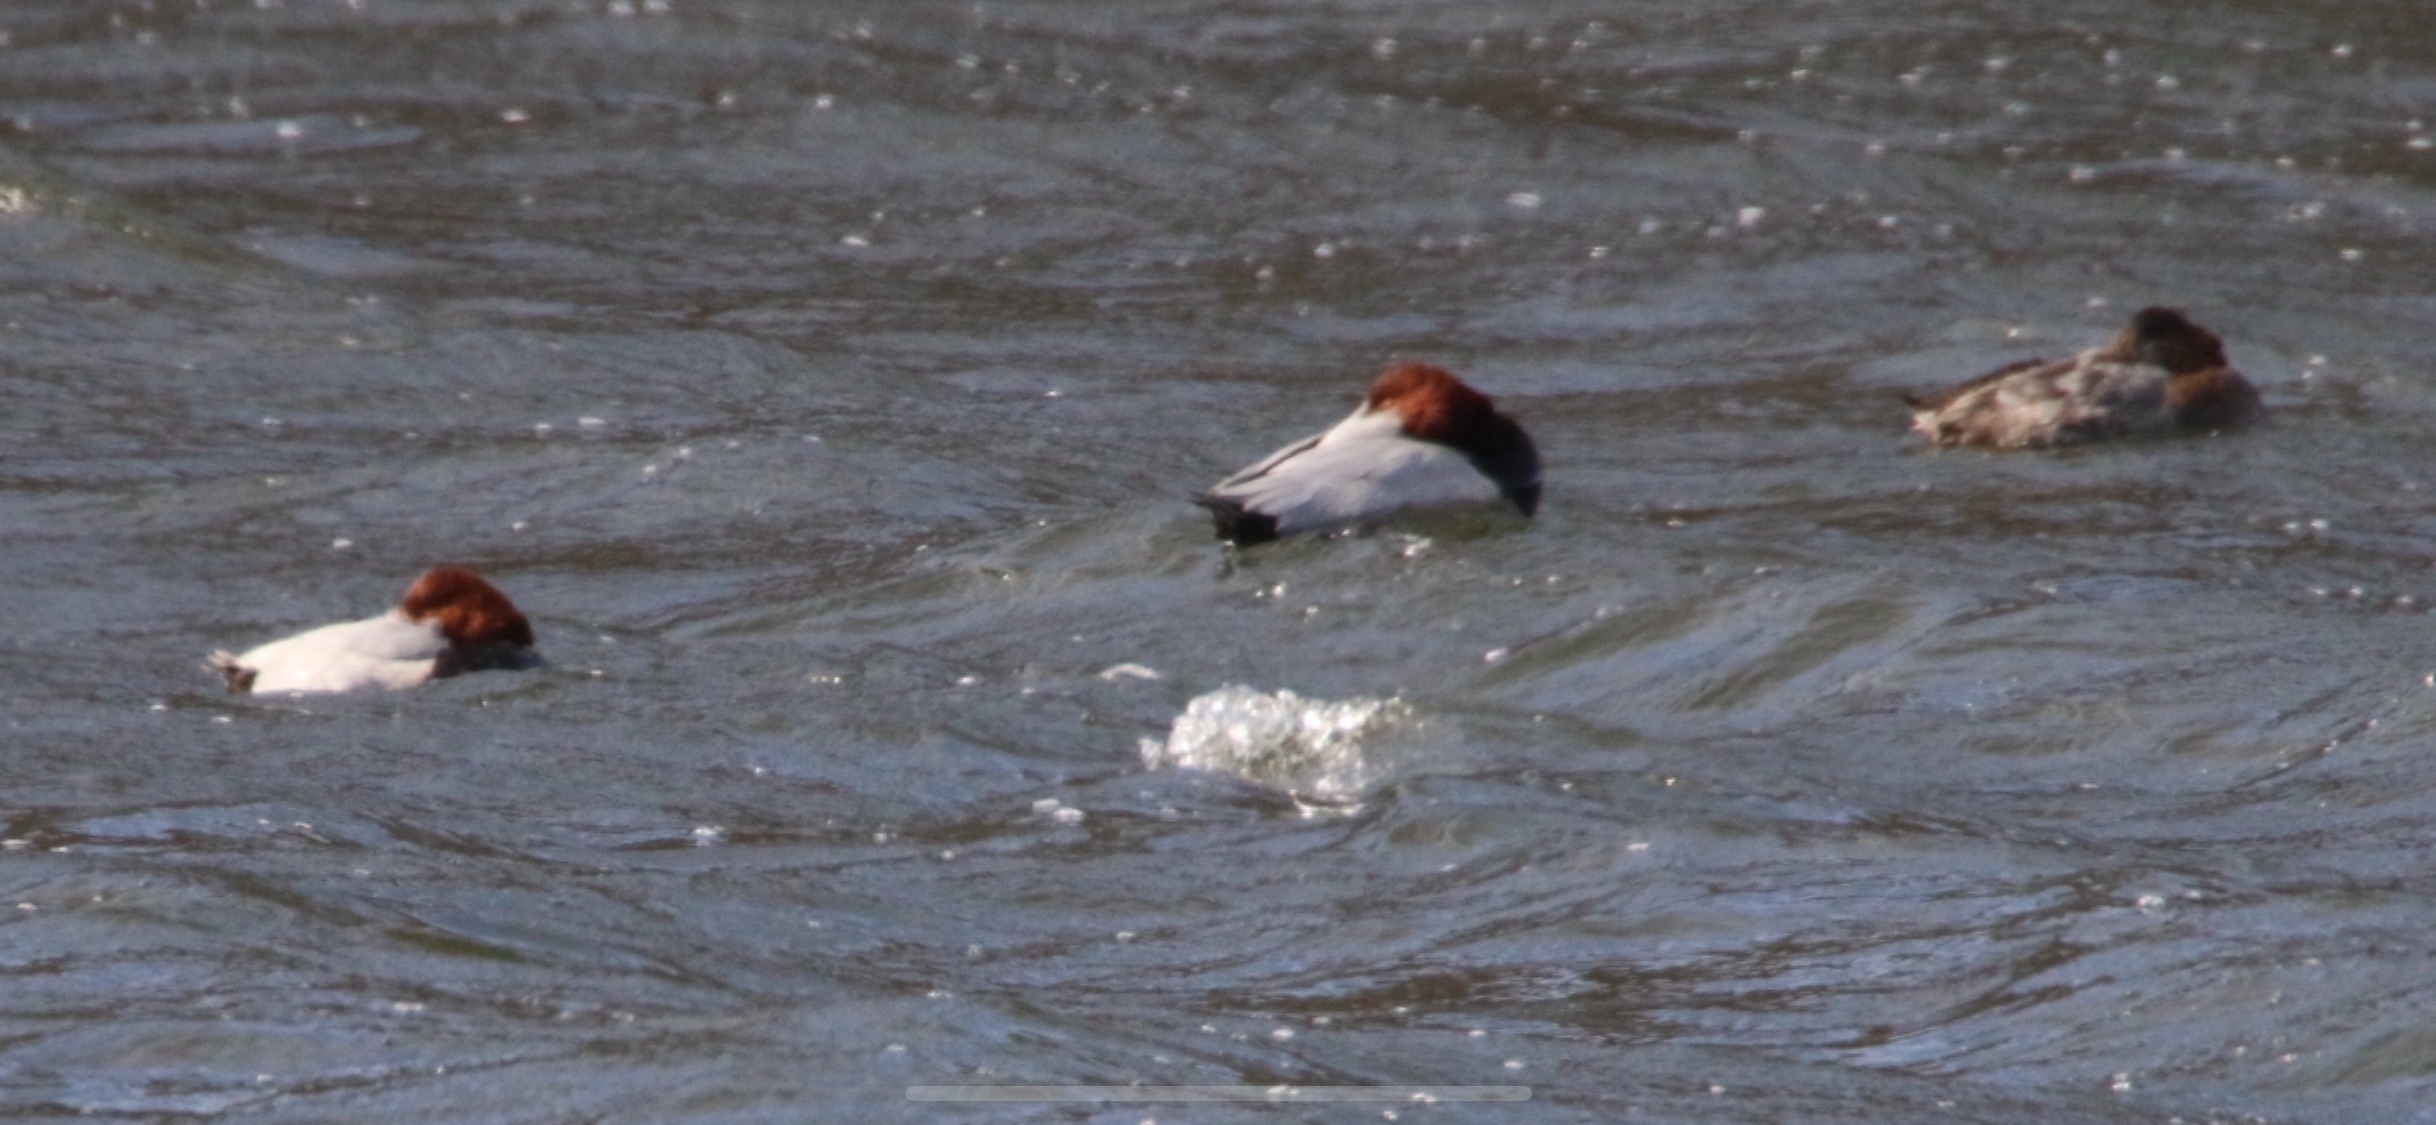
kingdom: Animalia
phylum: Chordata
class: Aves
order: Anseriformes
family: Anatidae
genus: Aythya
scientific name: Aythya ferina
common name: Taffeland
